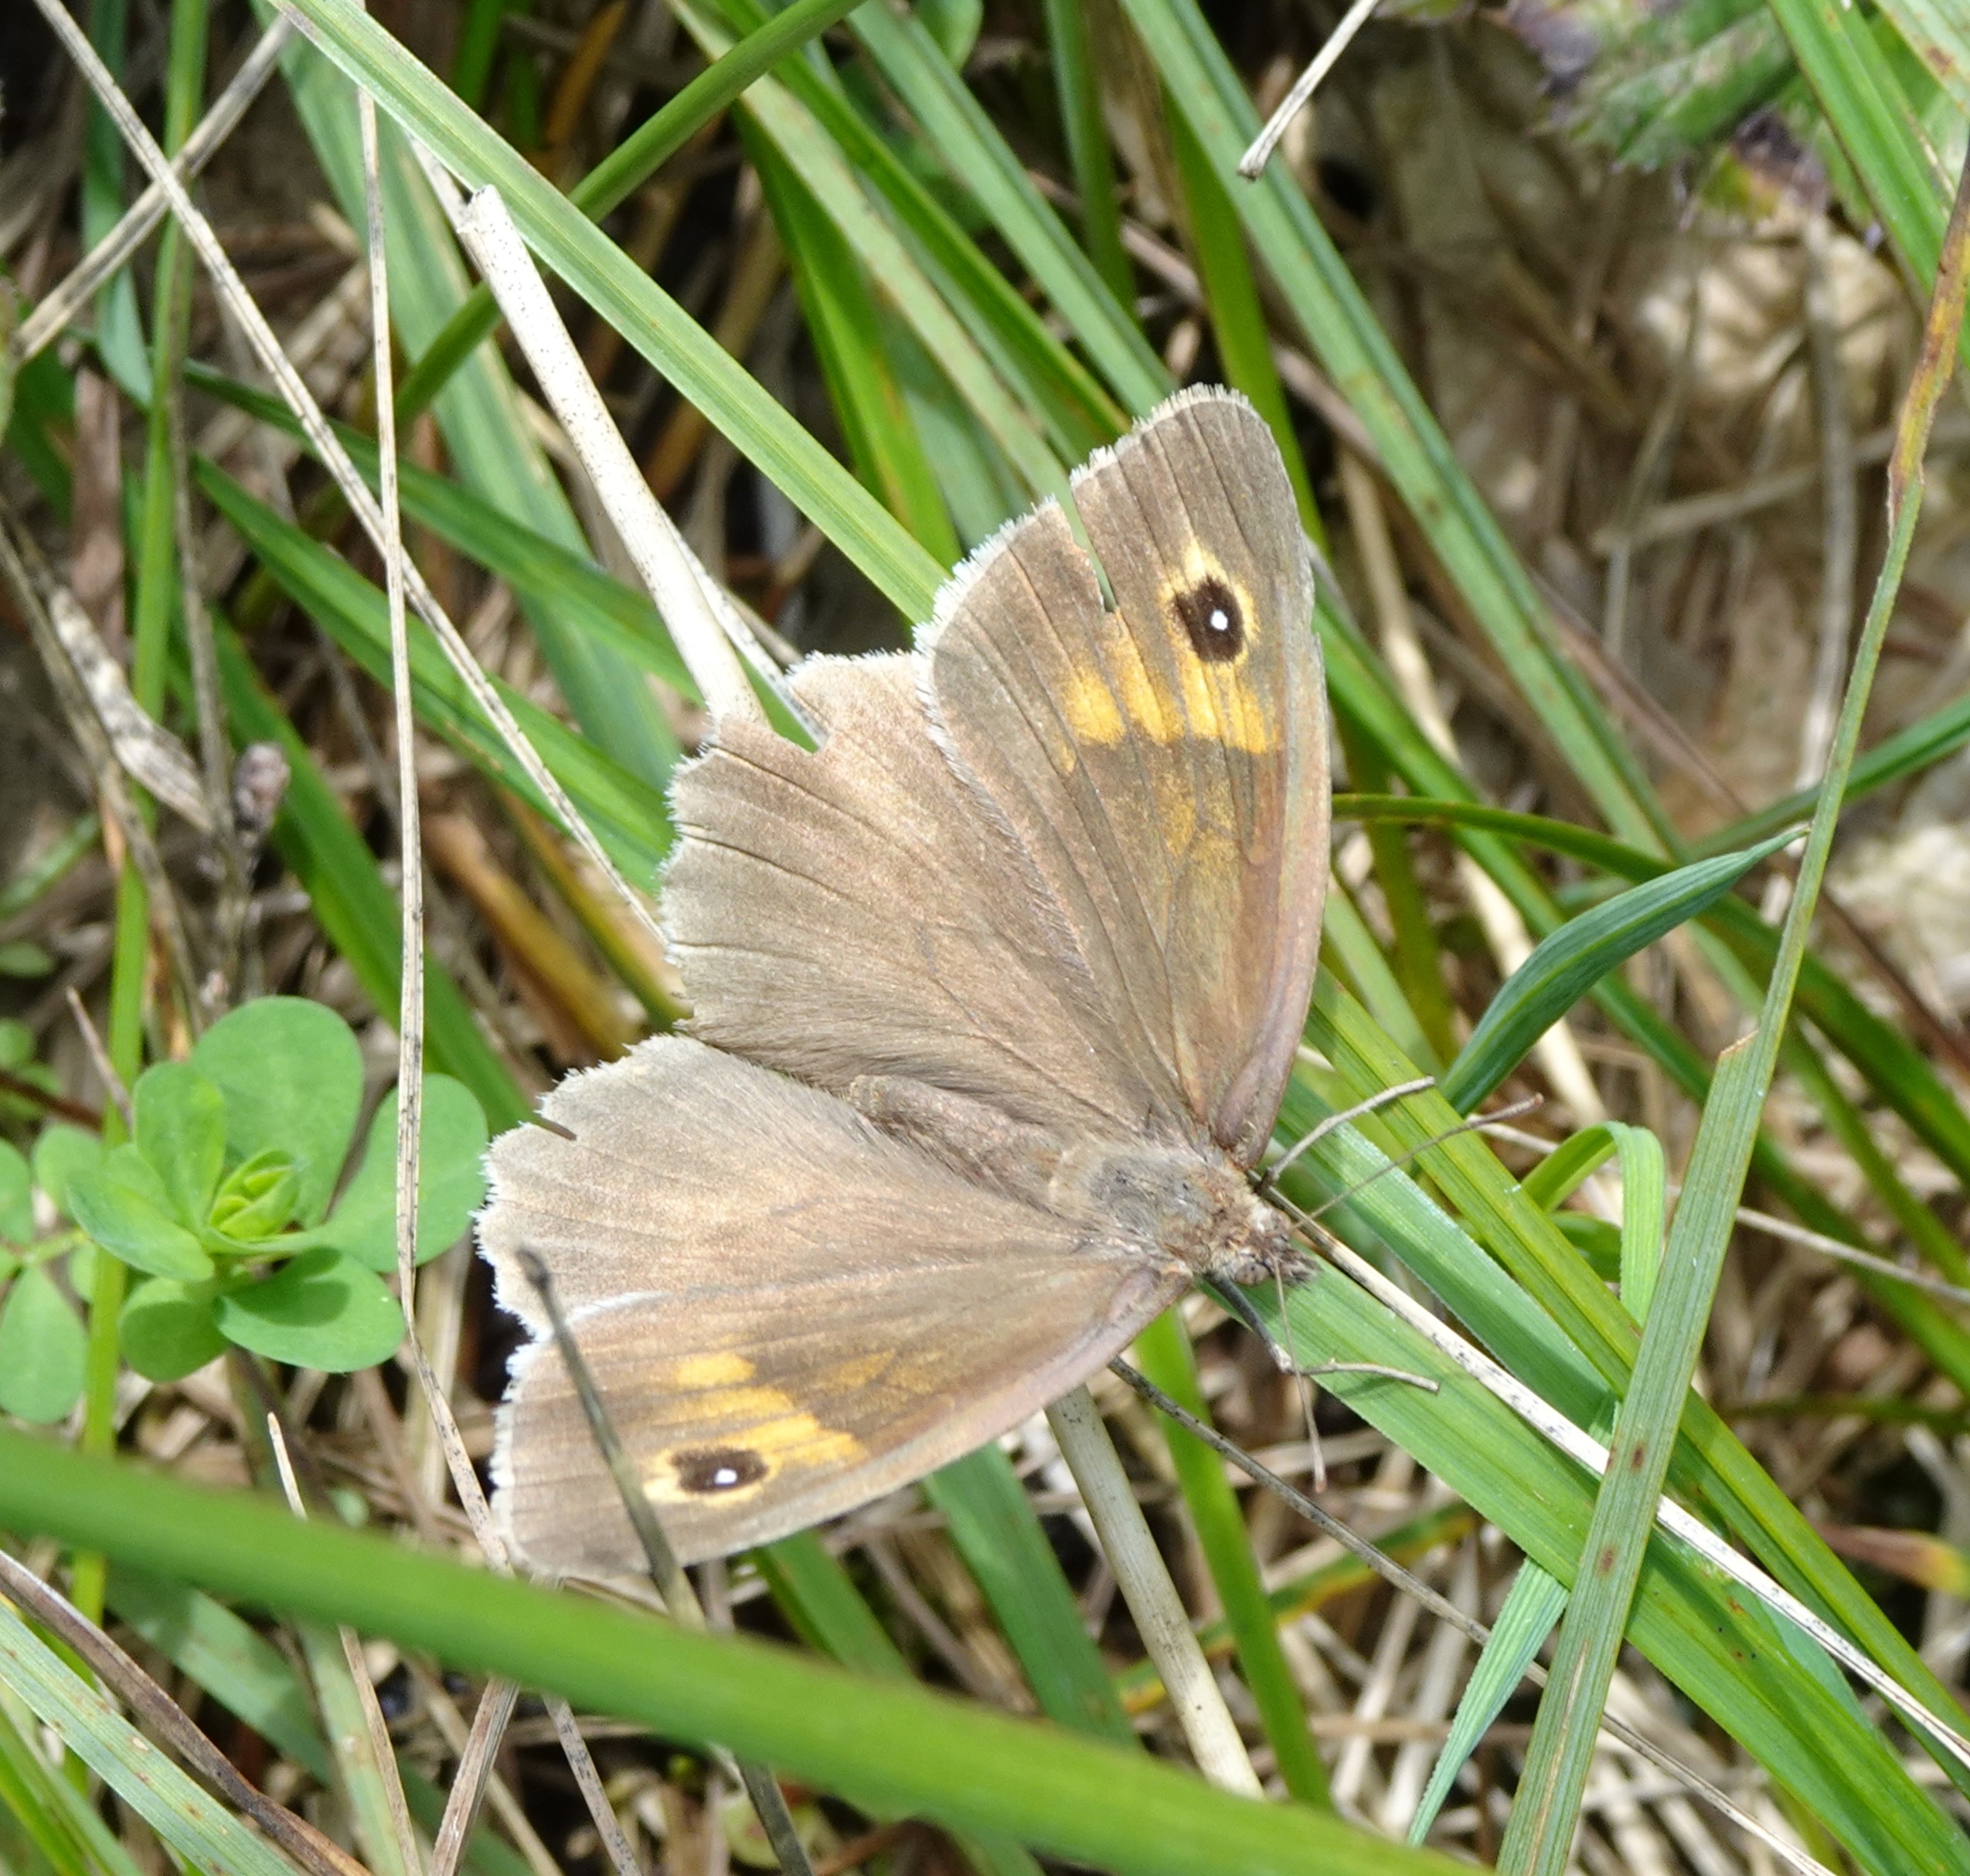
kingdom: Animalia
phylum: Arthropoda
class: Insecta
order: Lepidoptera
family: Nymphalidae
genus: Maniola
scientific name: Maniola jurtina
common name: Græsrandøje
